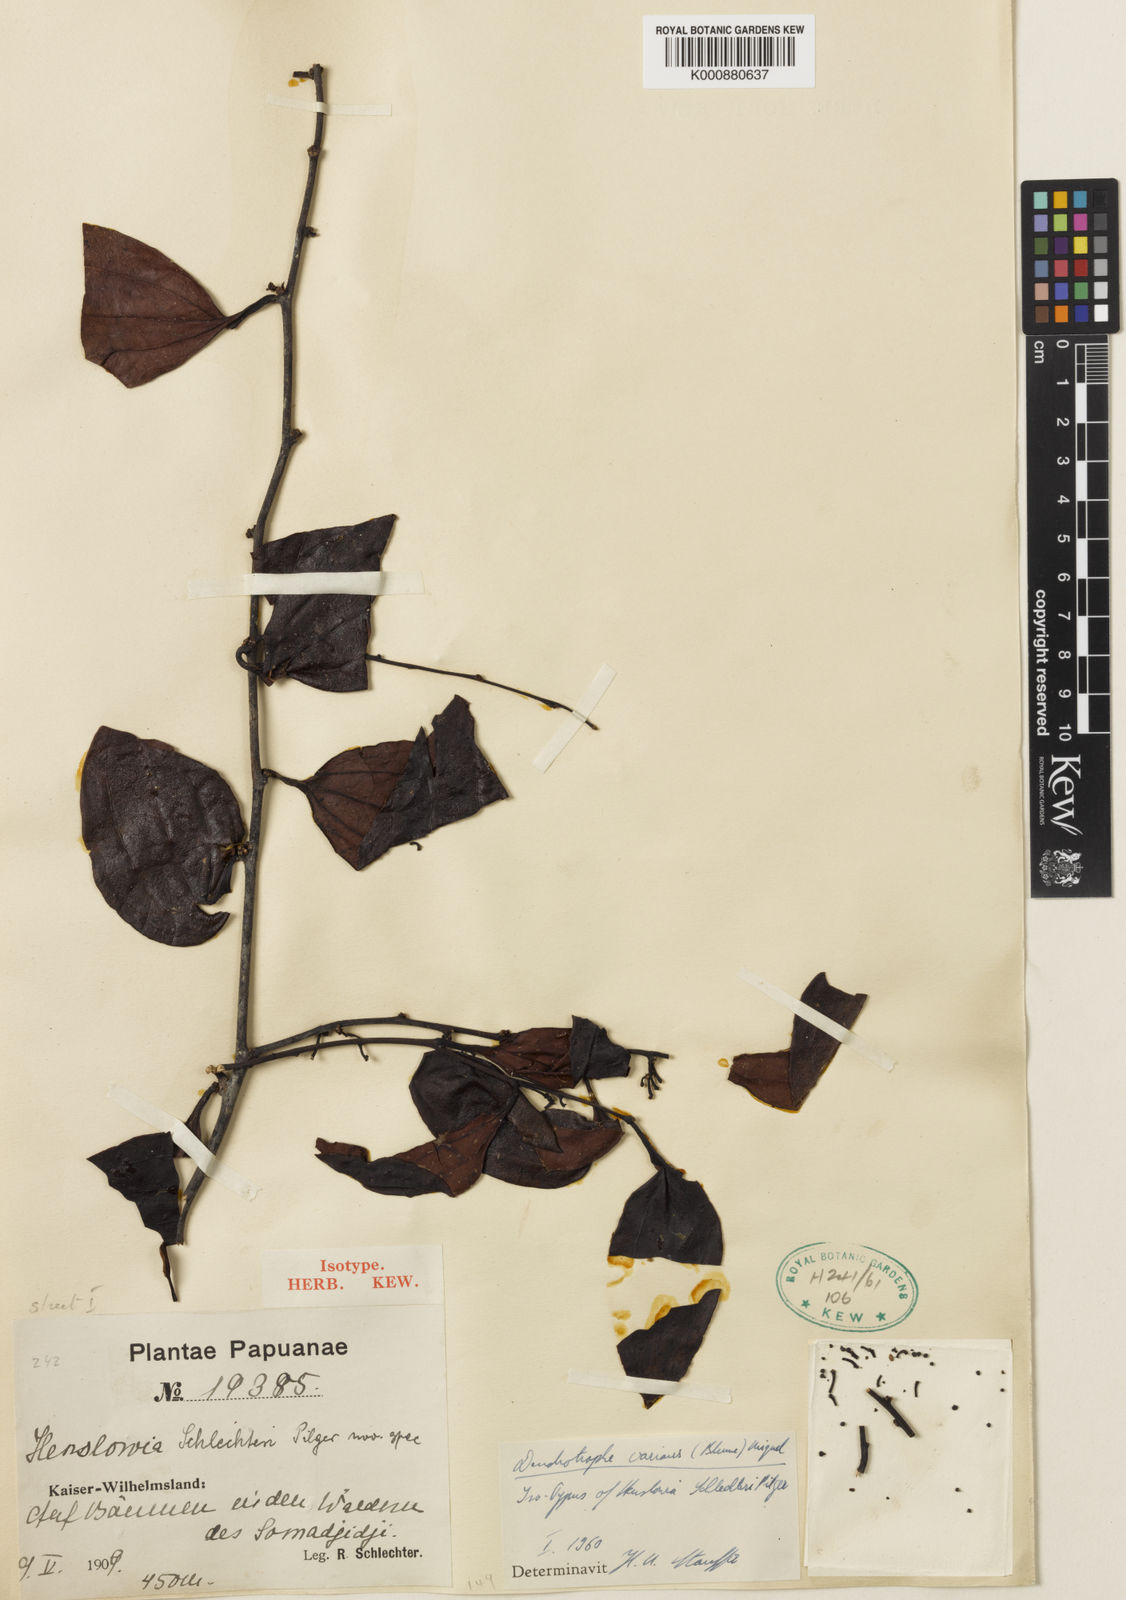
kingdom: Plantae
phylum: Tracheophyta
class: Magnoliopsida
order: Santalales
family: Amphorogynaceae
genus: Dendrotrophe
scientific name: Dendrotrophe varians
